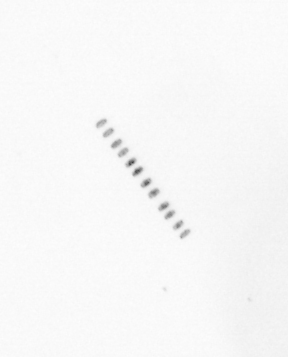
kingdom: Chromista
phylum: Ochrophyta
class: Bacillariophyceae
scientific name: Bacillariophyceae
